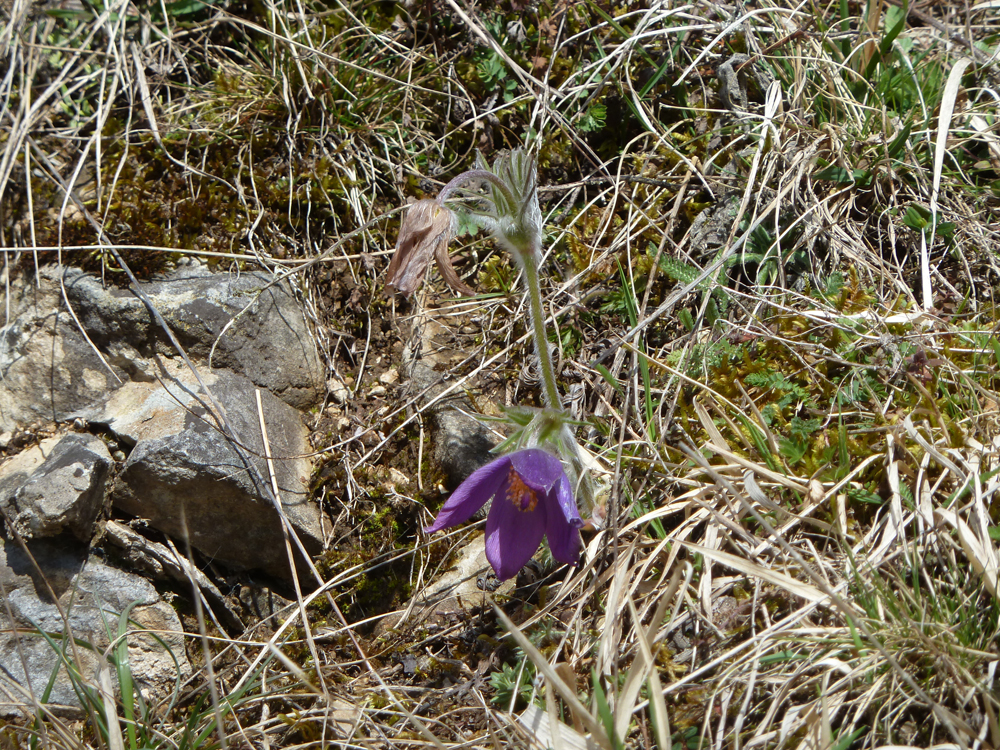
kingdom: Plantae
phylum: Tracheophyta
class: Magnoliopsida
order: Ranunculales
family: Ranunculaceae
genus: Pulsatilla
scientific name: Pulsatilla vulgaris
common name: Pasqueflower
